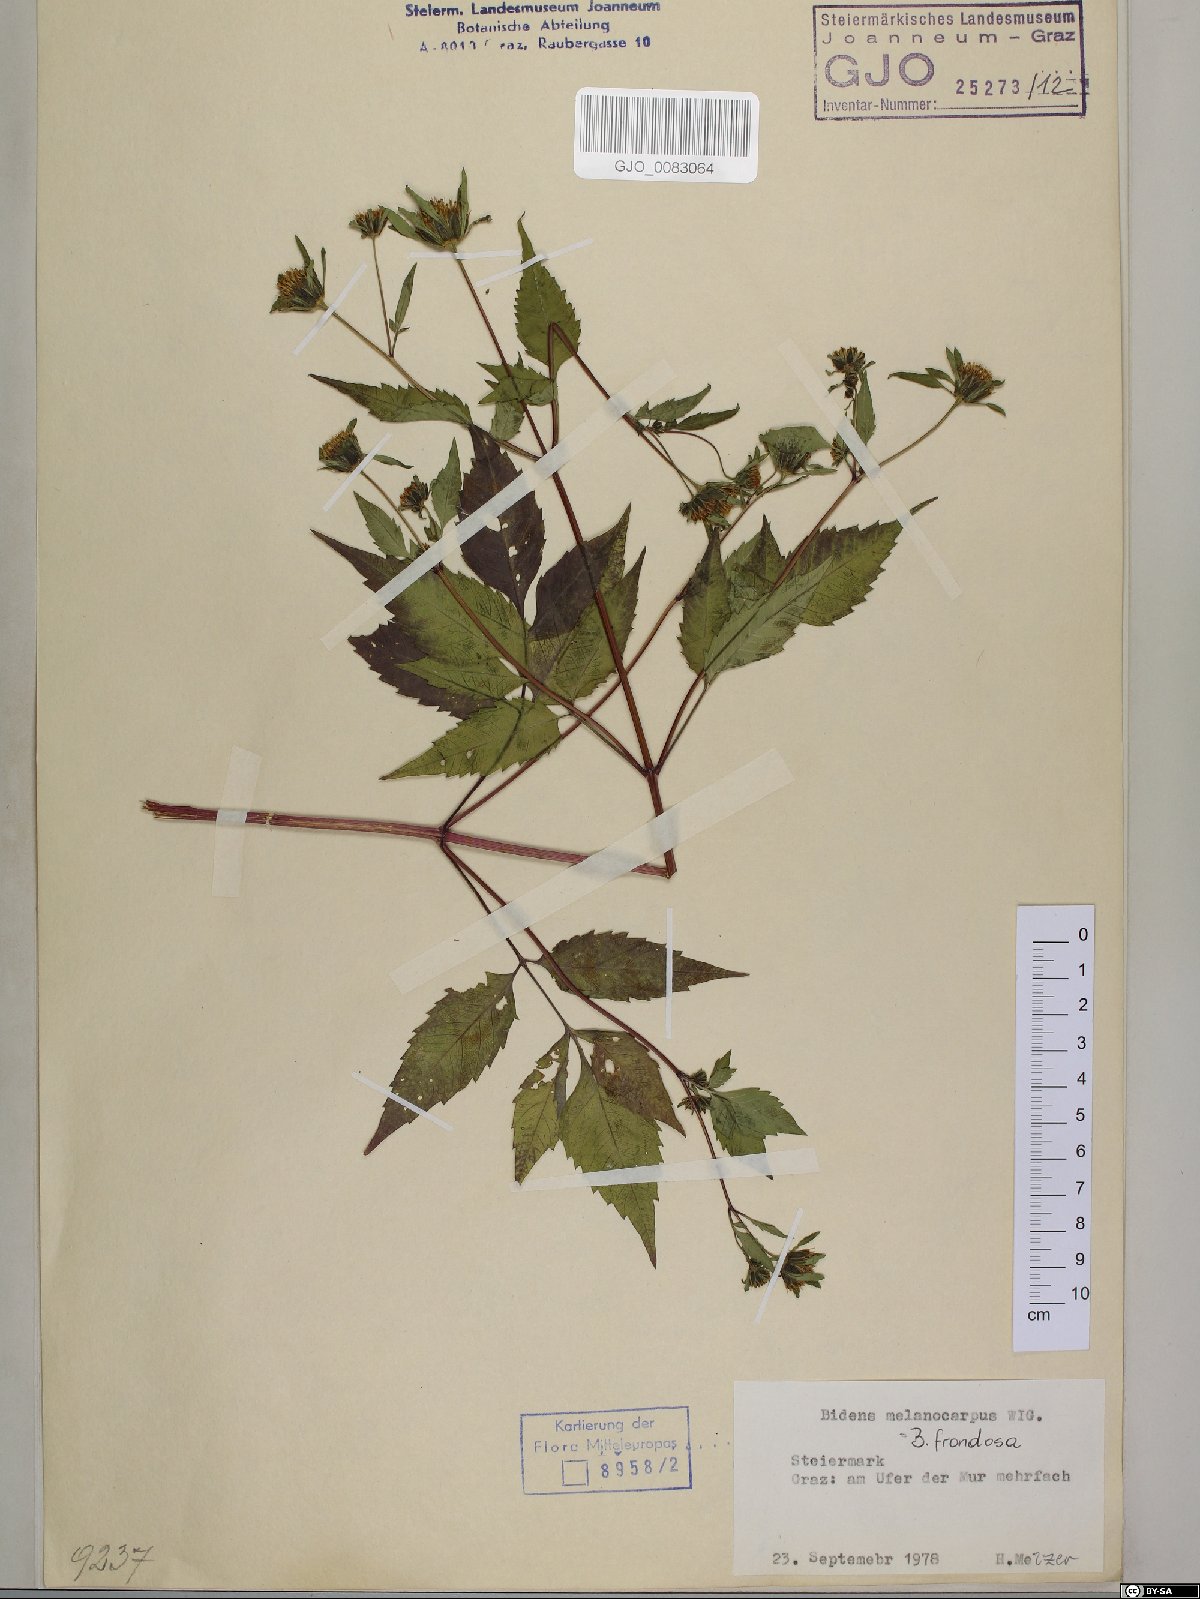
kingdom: Plantae
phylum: Tracheophyta
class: Magnoliopsida
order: Asterales
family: Asteraceae
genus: Bidens
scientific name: Bidens frondosa
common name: Beggarticks
